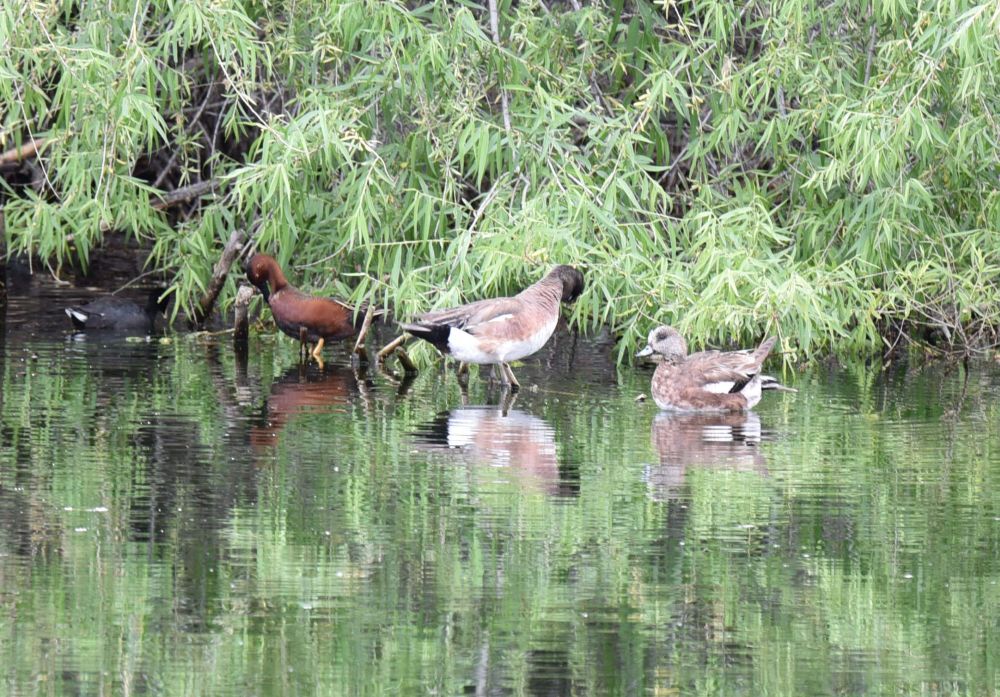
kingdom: Animalia
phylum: Chordata
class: Aves
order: Anseriformes
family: Anatidae
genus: Spatula
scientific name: Spatula cyanoptera
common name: Cinnamon teal
